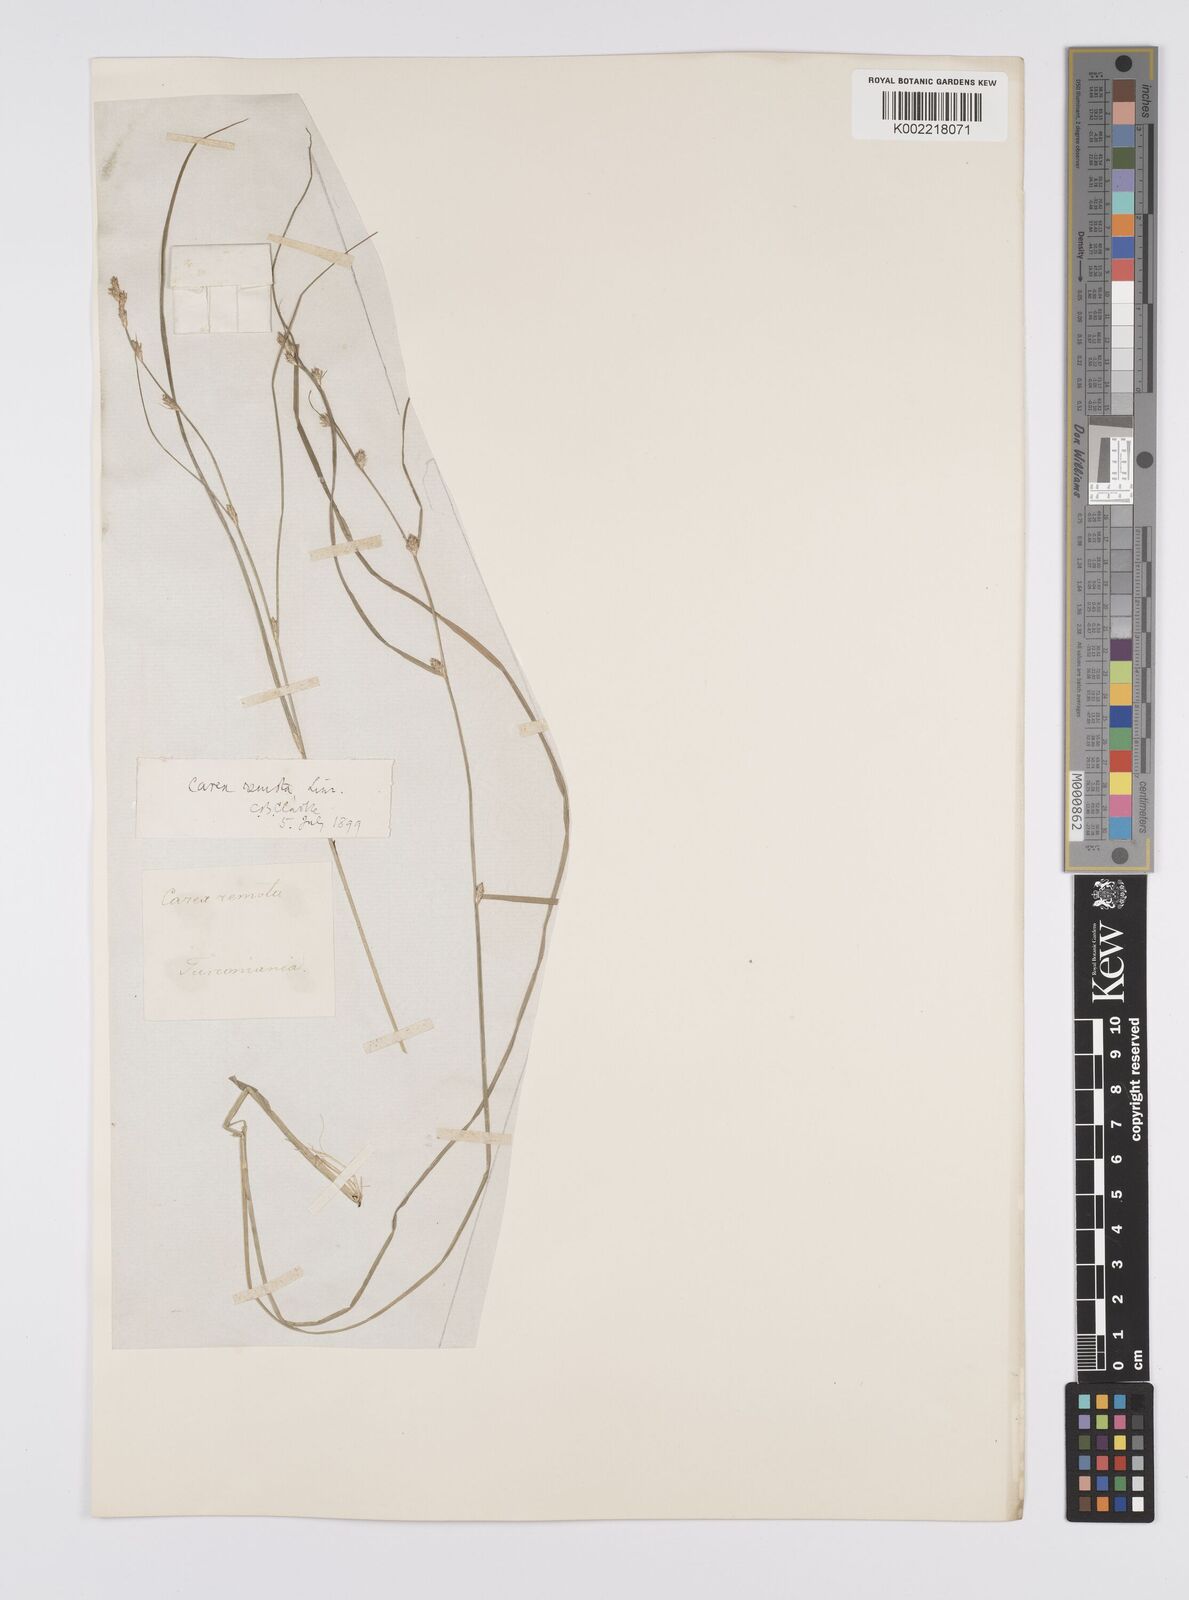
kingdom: Plantae
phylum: Tracheophyta
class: Liliopsida
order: Poales
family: Cyperaceae
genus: Carex
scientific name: Carex remota
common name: Remote sedge
